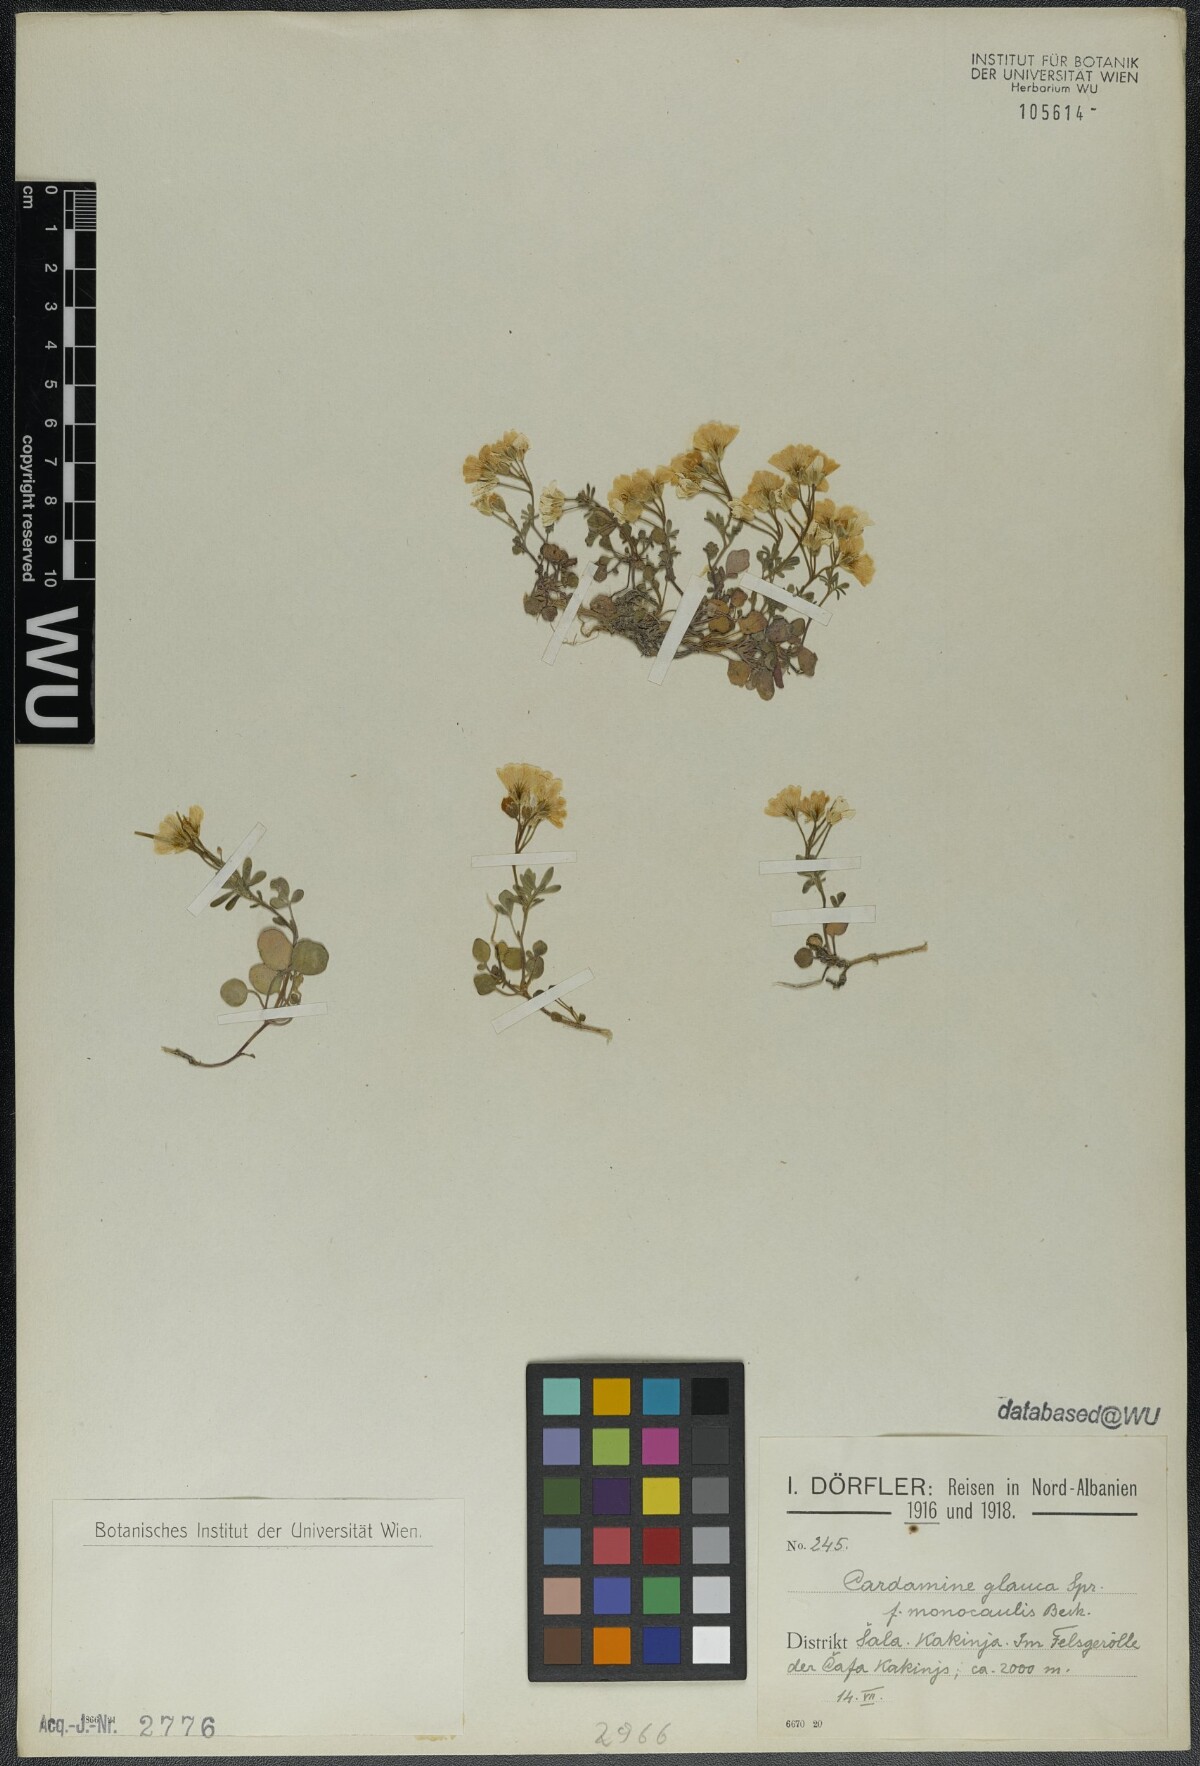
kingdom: Plantae
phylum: Tracheophyta
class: Magnoliopsida
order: Brassicales
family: Brassicaceae
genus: Cardamine
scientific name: Cardamine glauca
